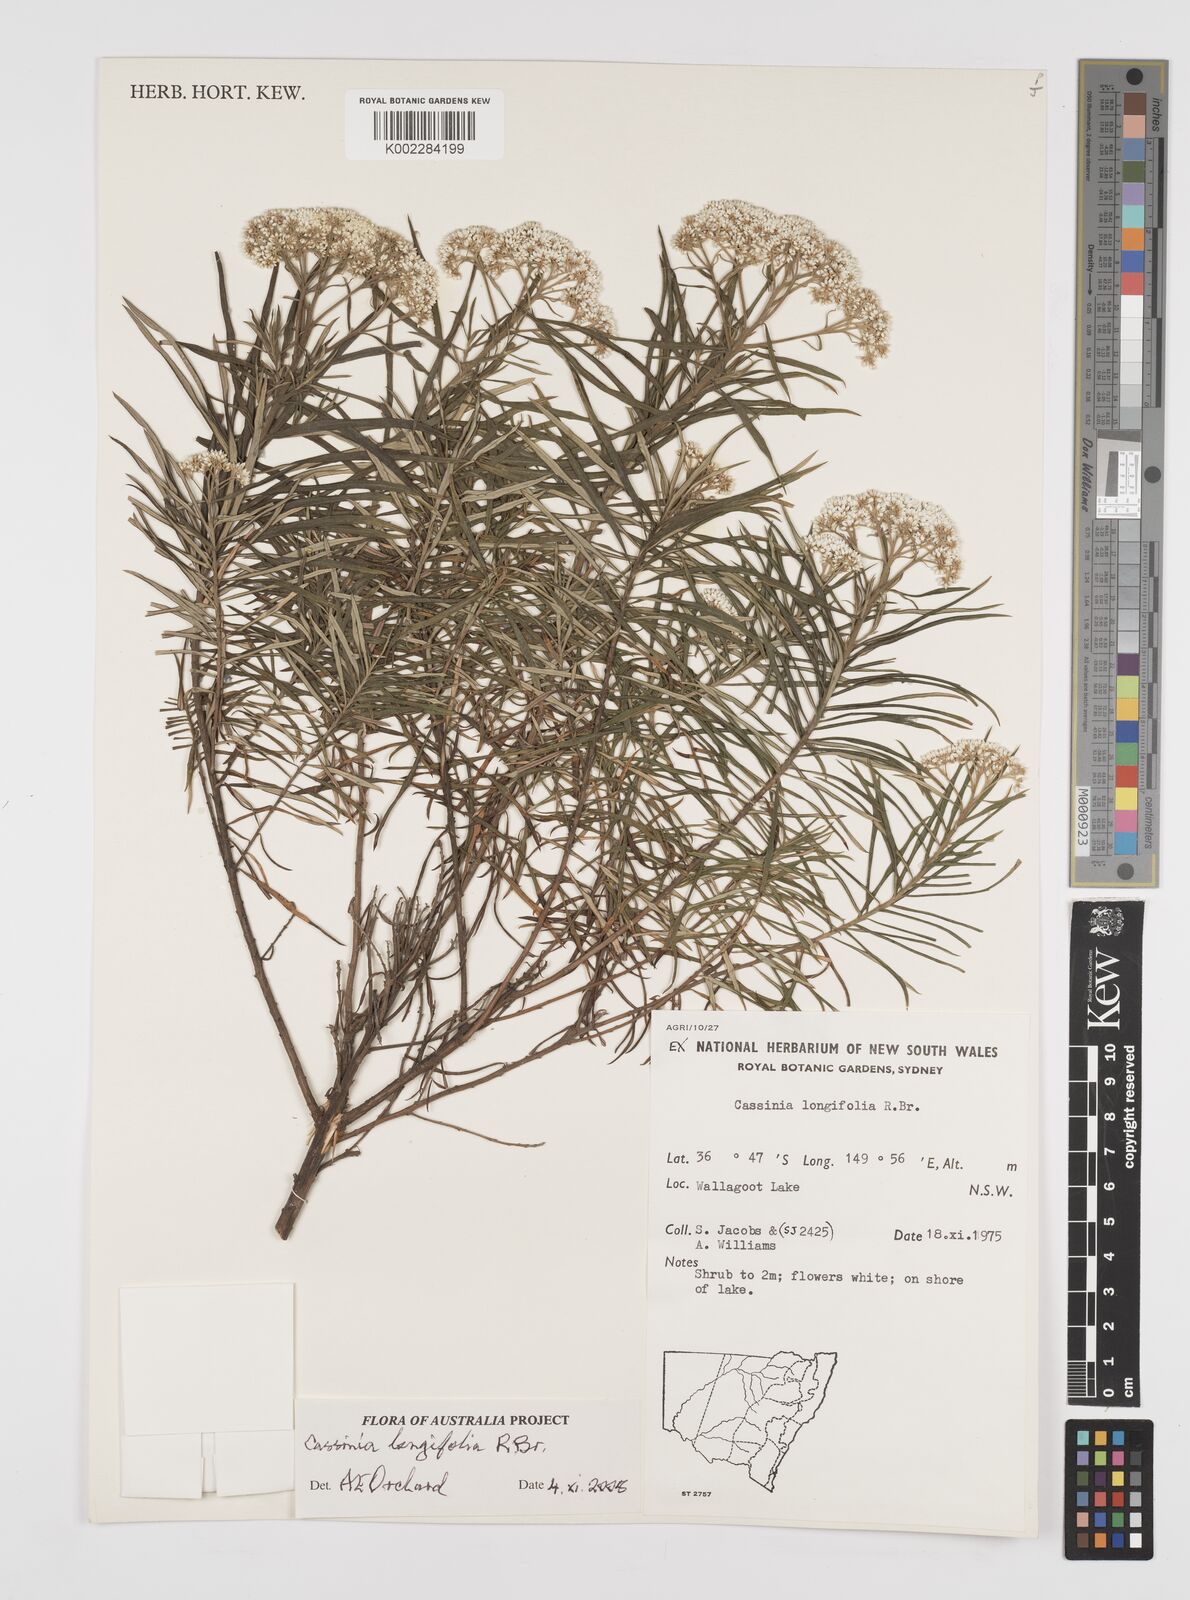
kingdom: Plantae
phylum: Tracheophyta
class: Magnoliopsida
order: Asterales
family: Asteraceae
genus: Cassinia
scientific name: Cassinia longifolia
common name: Longleaf-dogwood
